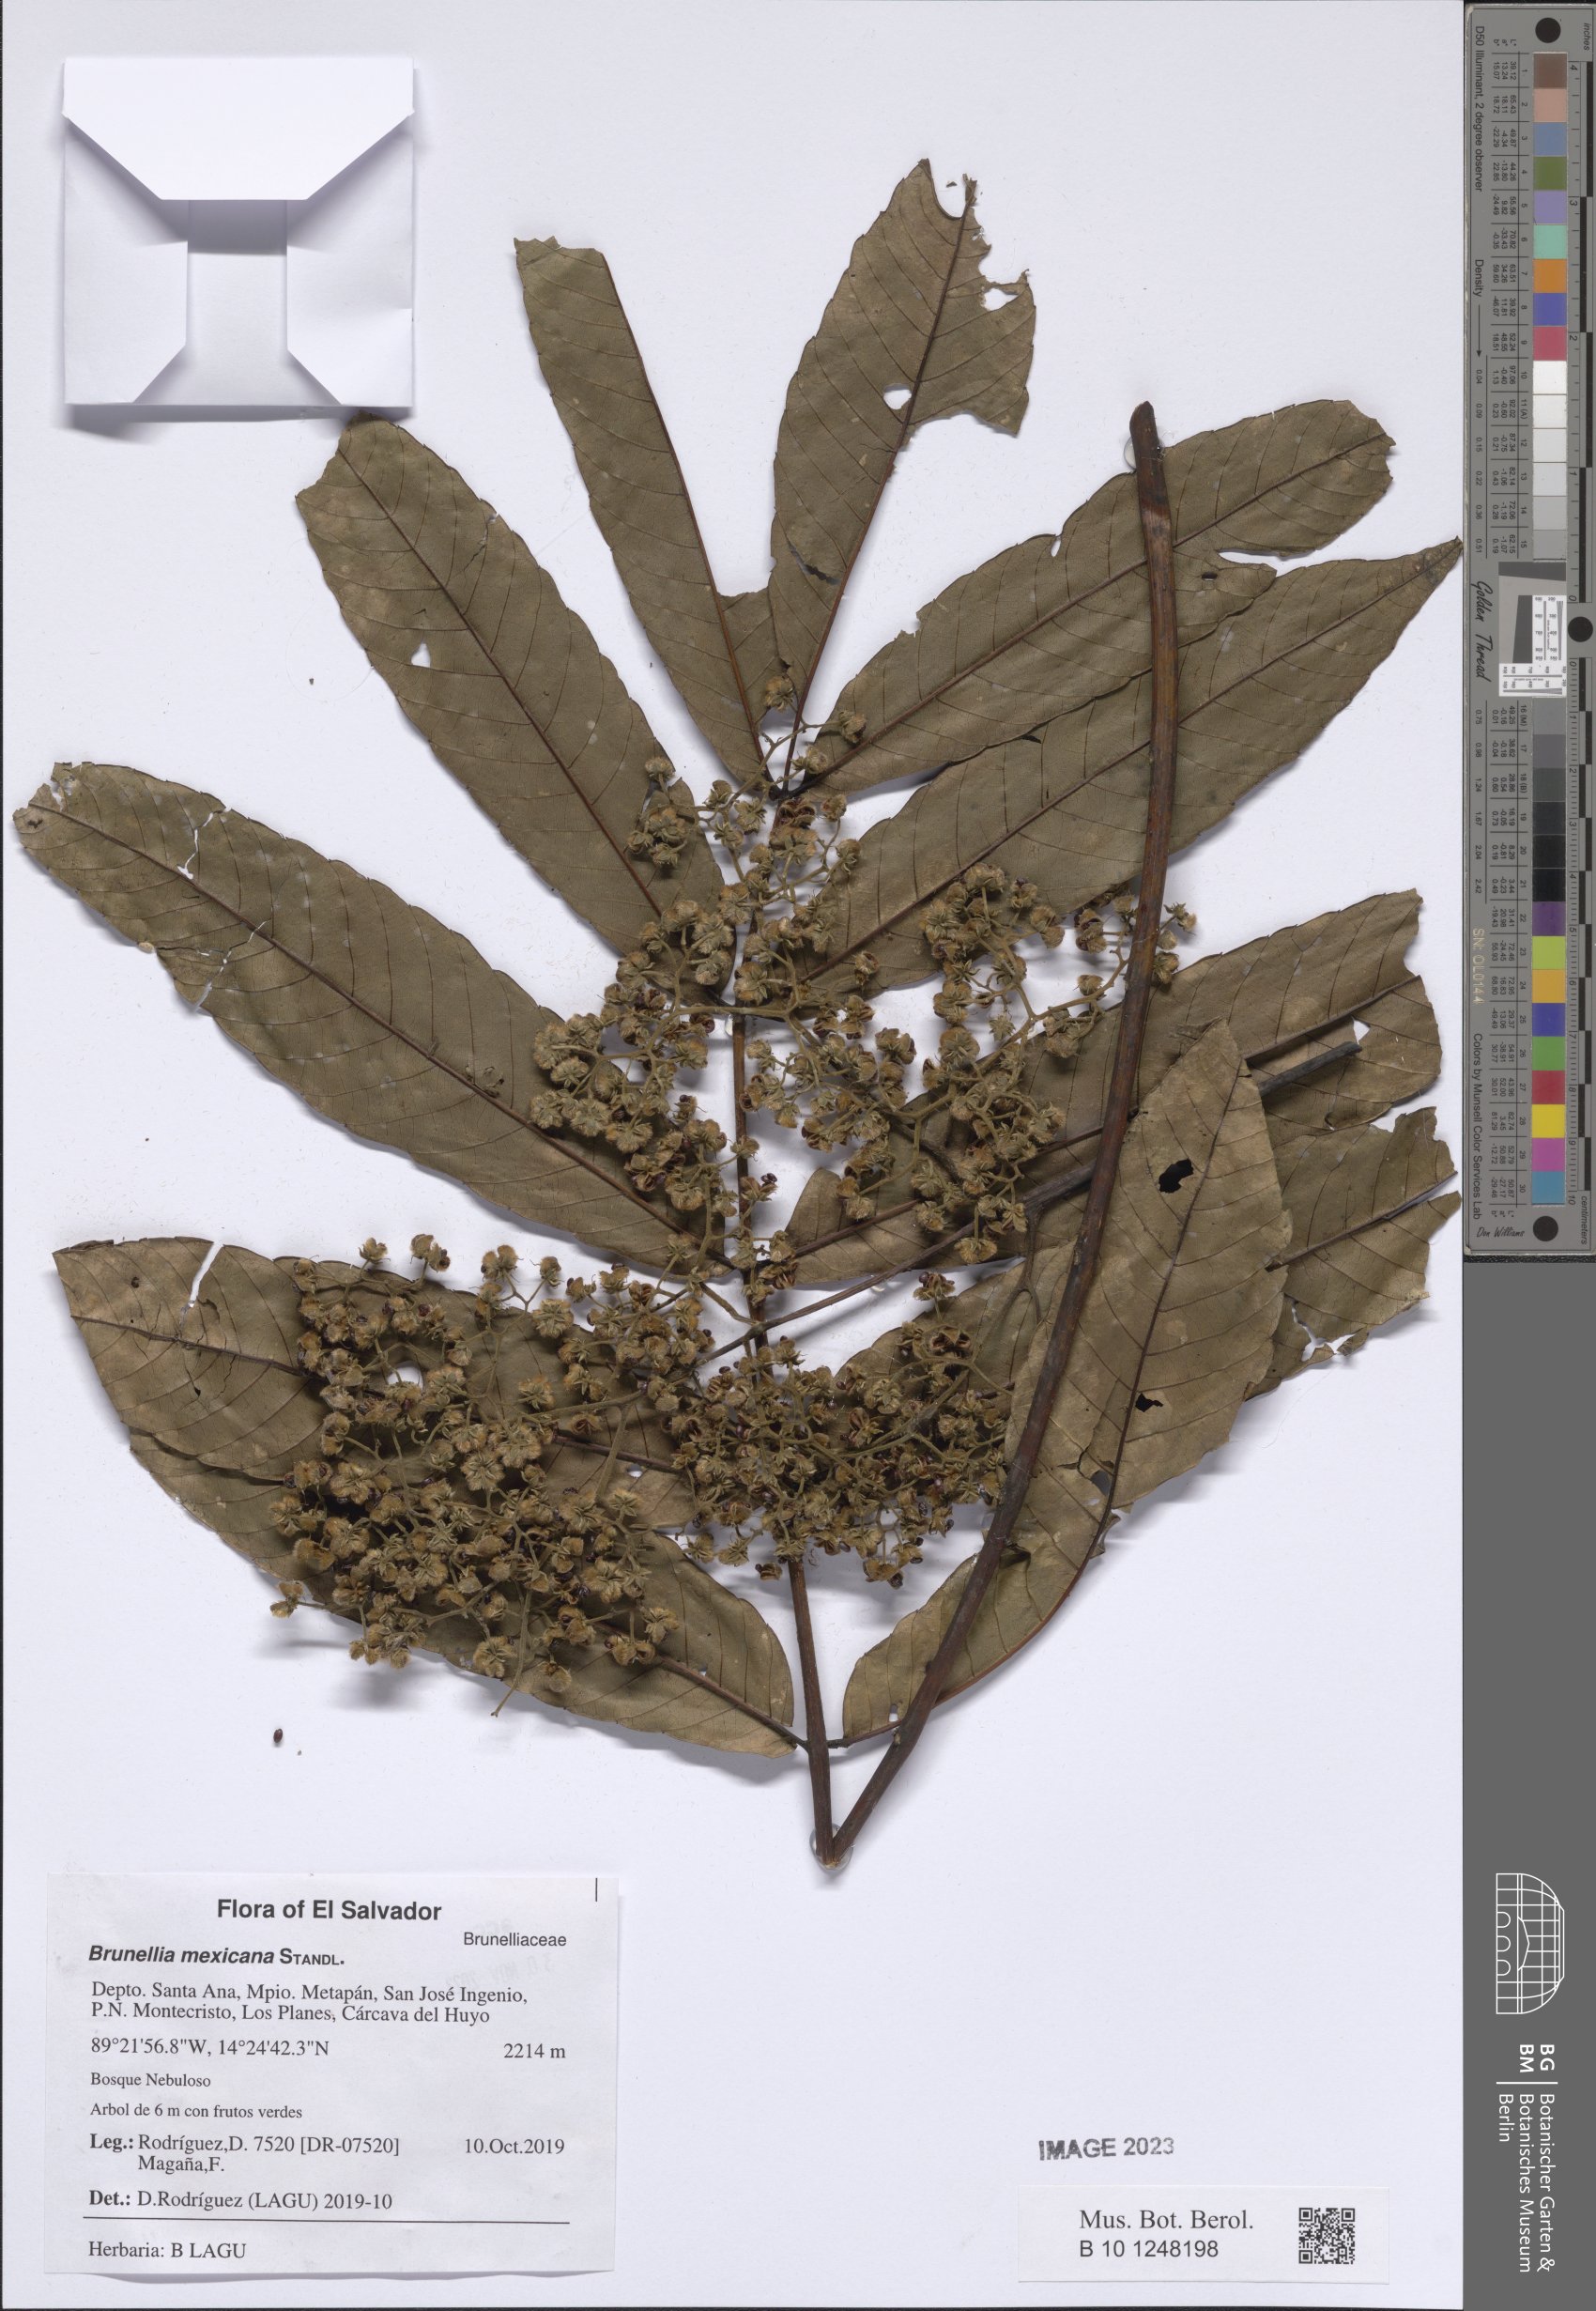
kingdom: Plantae
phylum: Tracheophyta
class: Magnoliopsida
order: Oxalidales
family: Brunelliaceae
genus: Brunellia
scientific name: Brunellia mexicana
